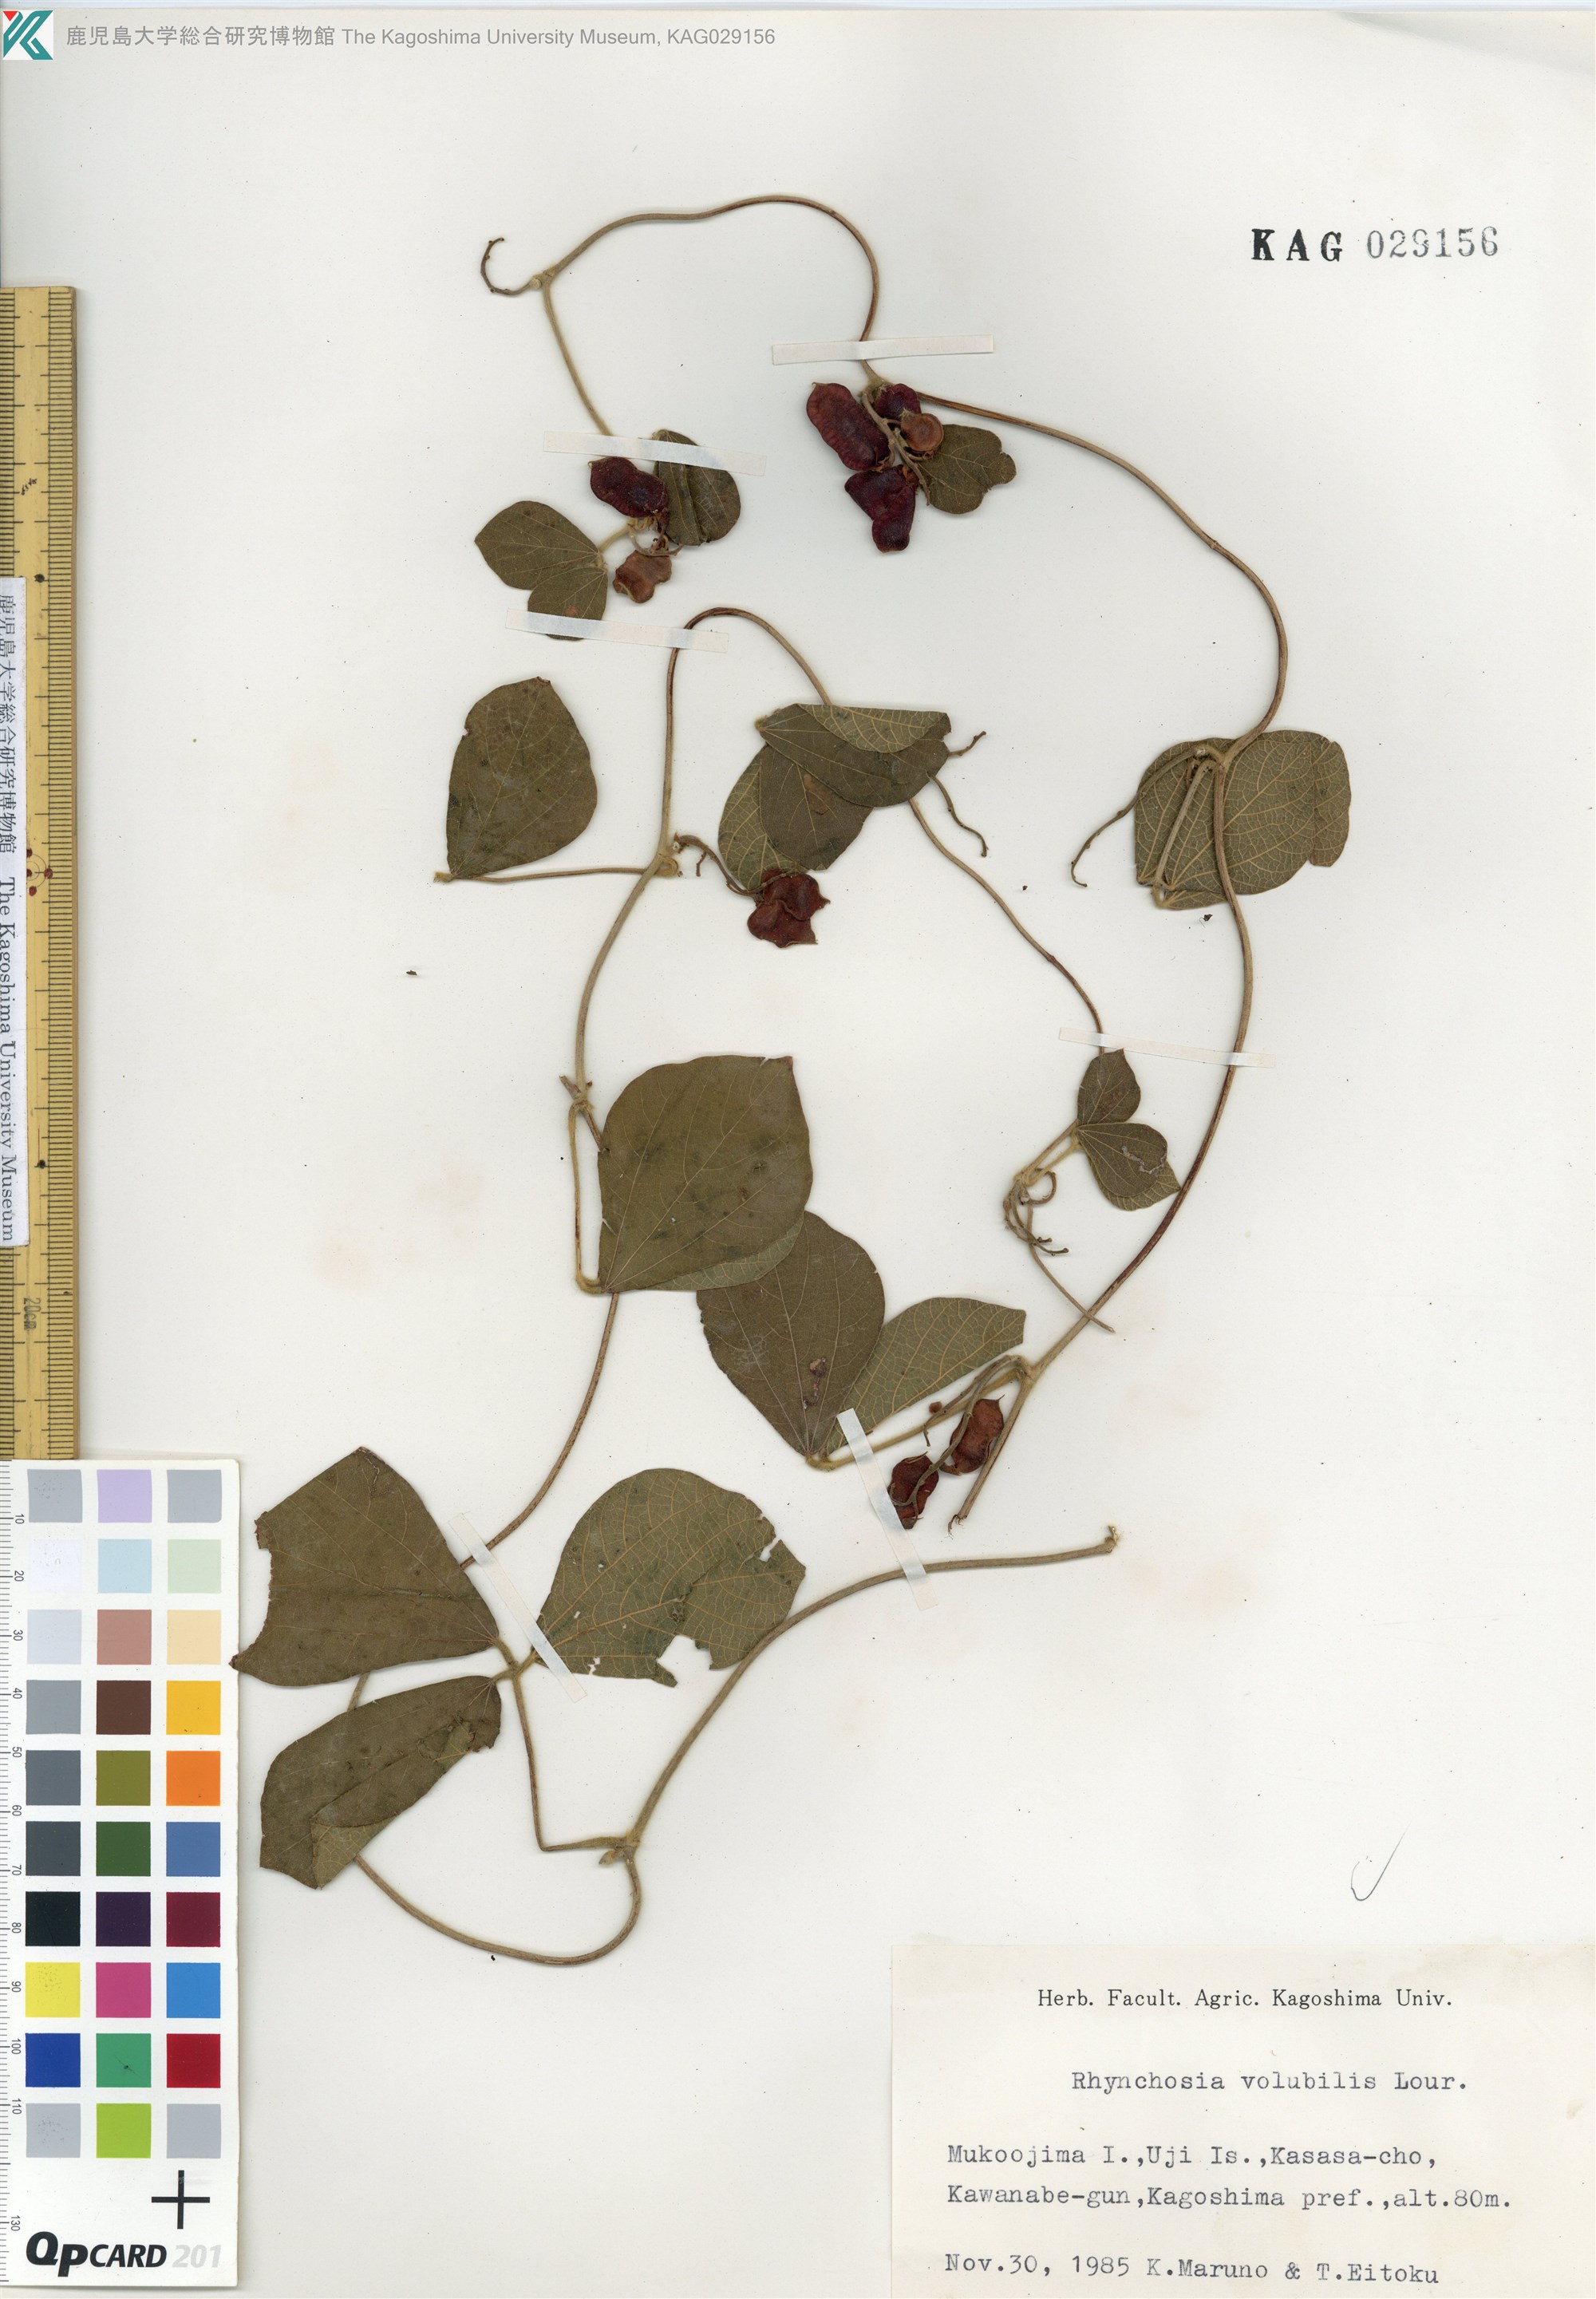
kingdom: Plantae
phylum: Tracheophyta
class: Magnoliopsida
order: Fabales
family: Fabaceae
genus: Rhynchosia
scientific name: Rhynchosia volubilis
